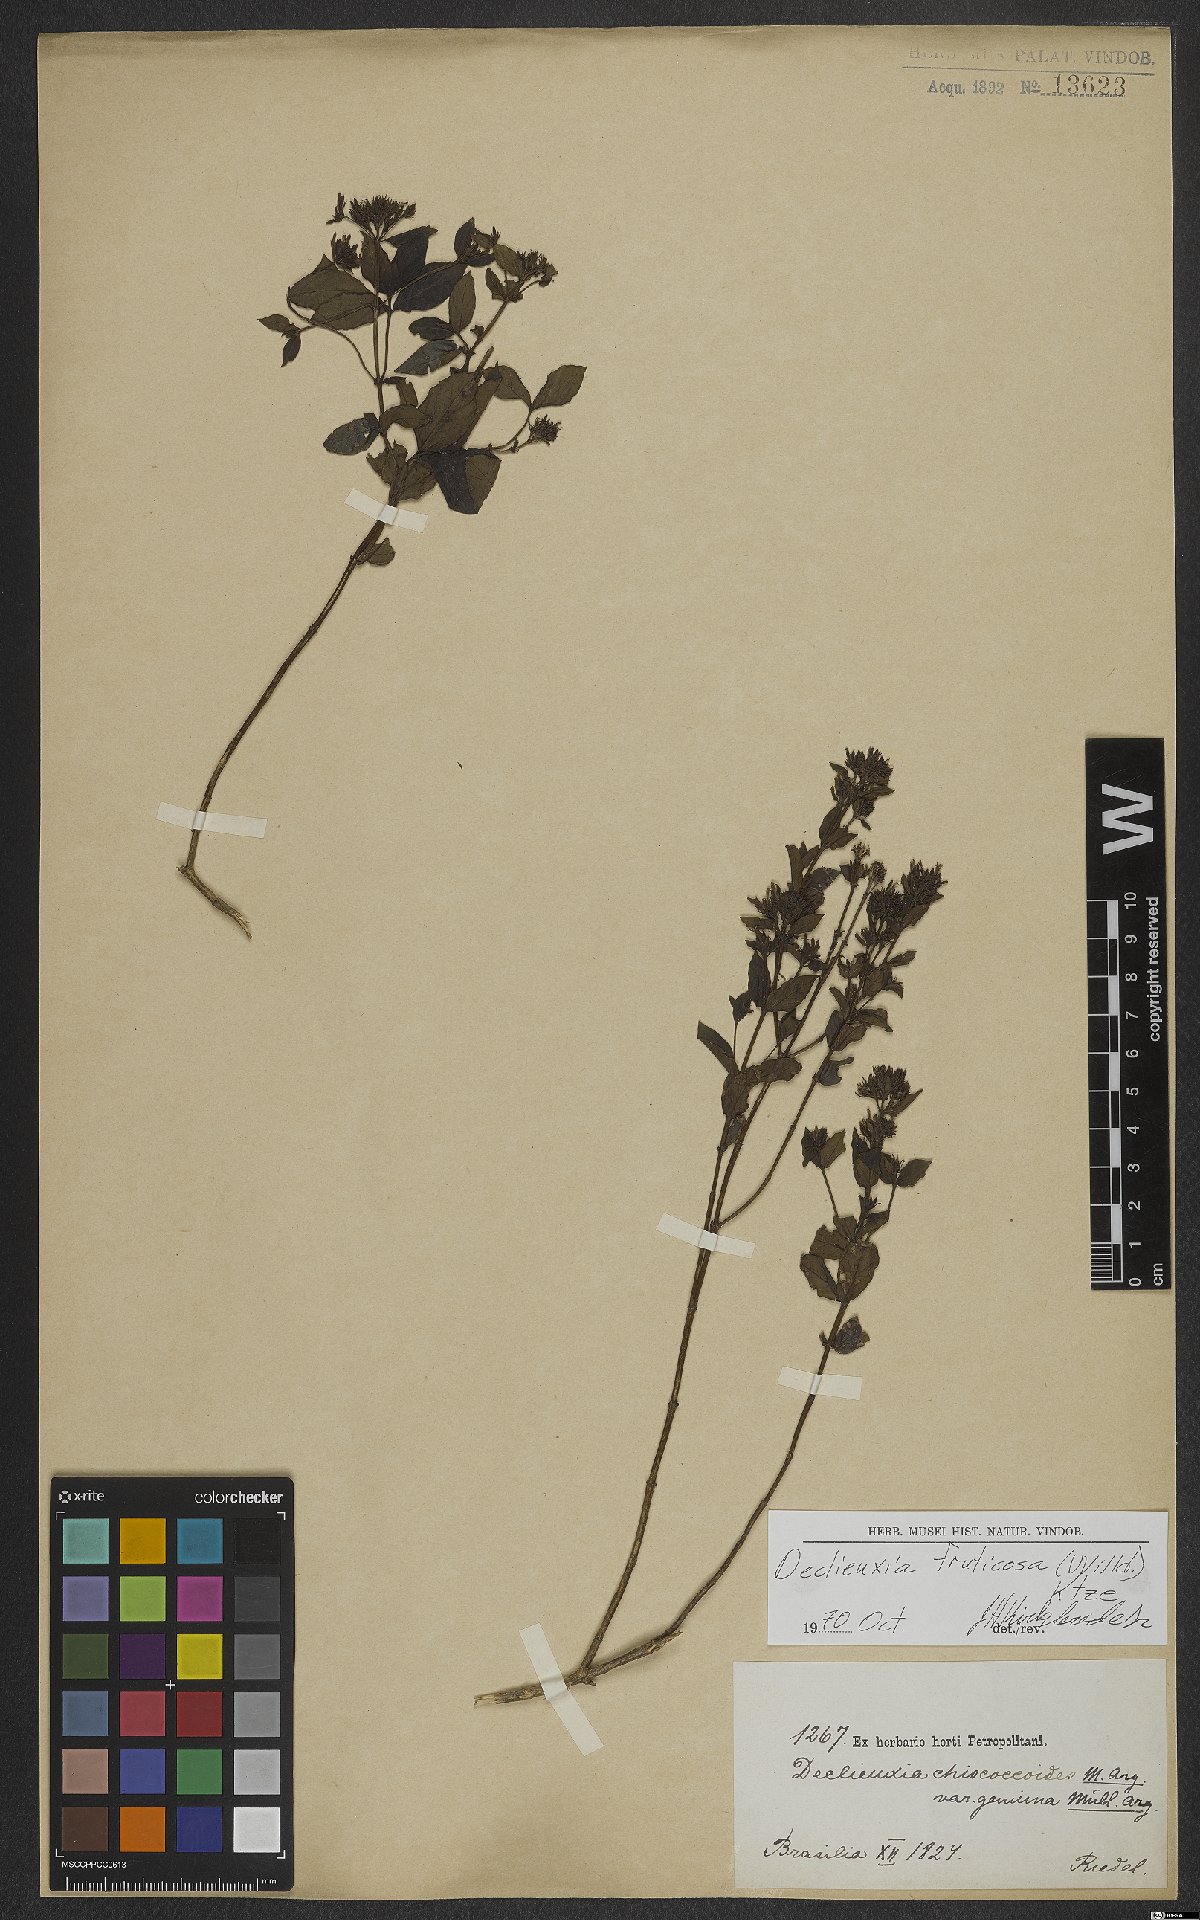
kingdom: Plantae
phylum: Tracheophyta
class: Magnoliopsida
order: Gentianales
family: Rubiaceae
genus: Declieuxia
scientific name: Declieuxia fruticosa
